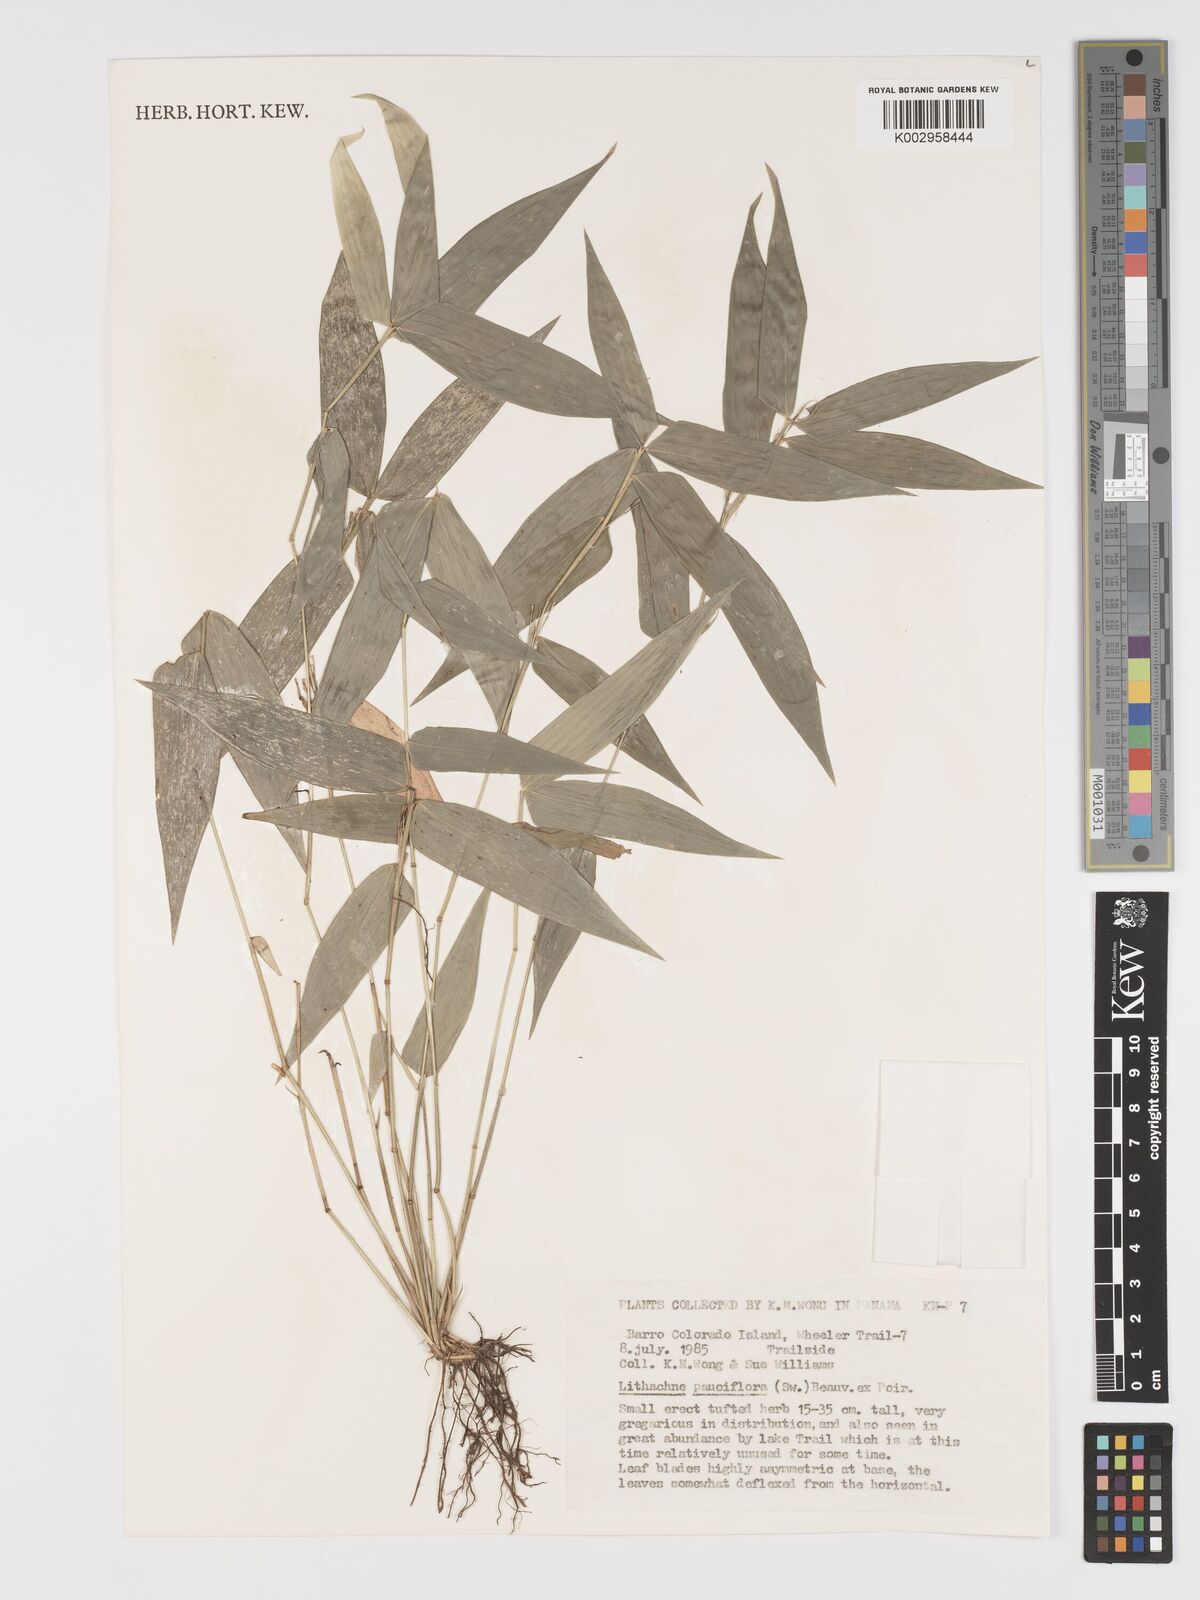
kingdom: Plantae
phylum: Tracheophyta
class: Liliopsida
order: Poales
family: Poaceae
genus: Lithachne
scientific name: Lithachne pauciflora
